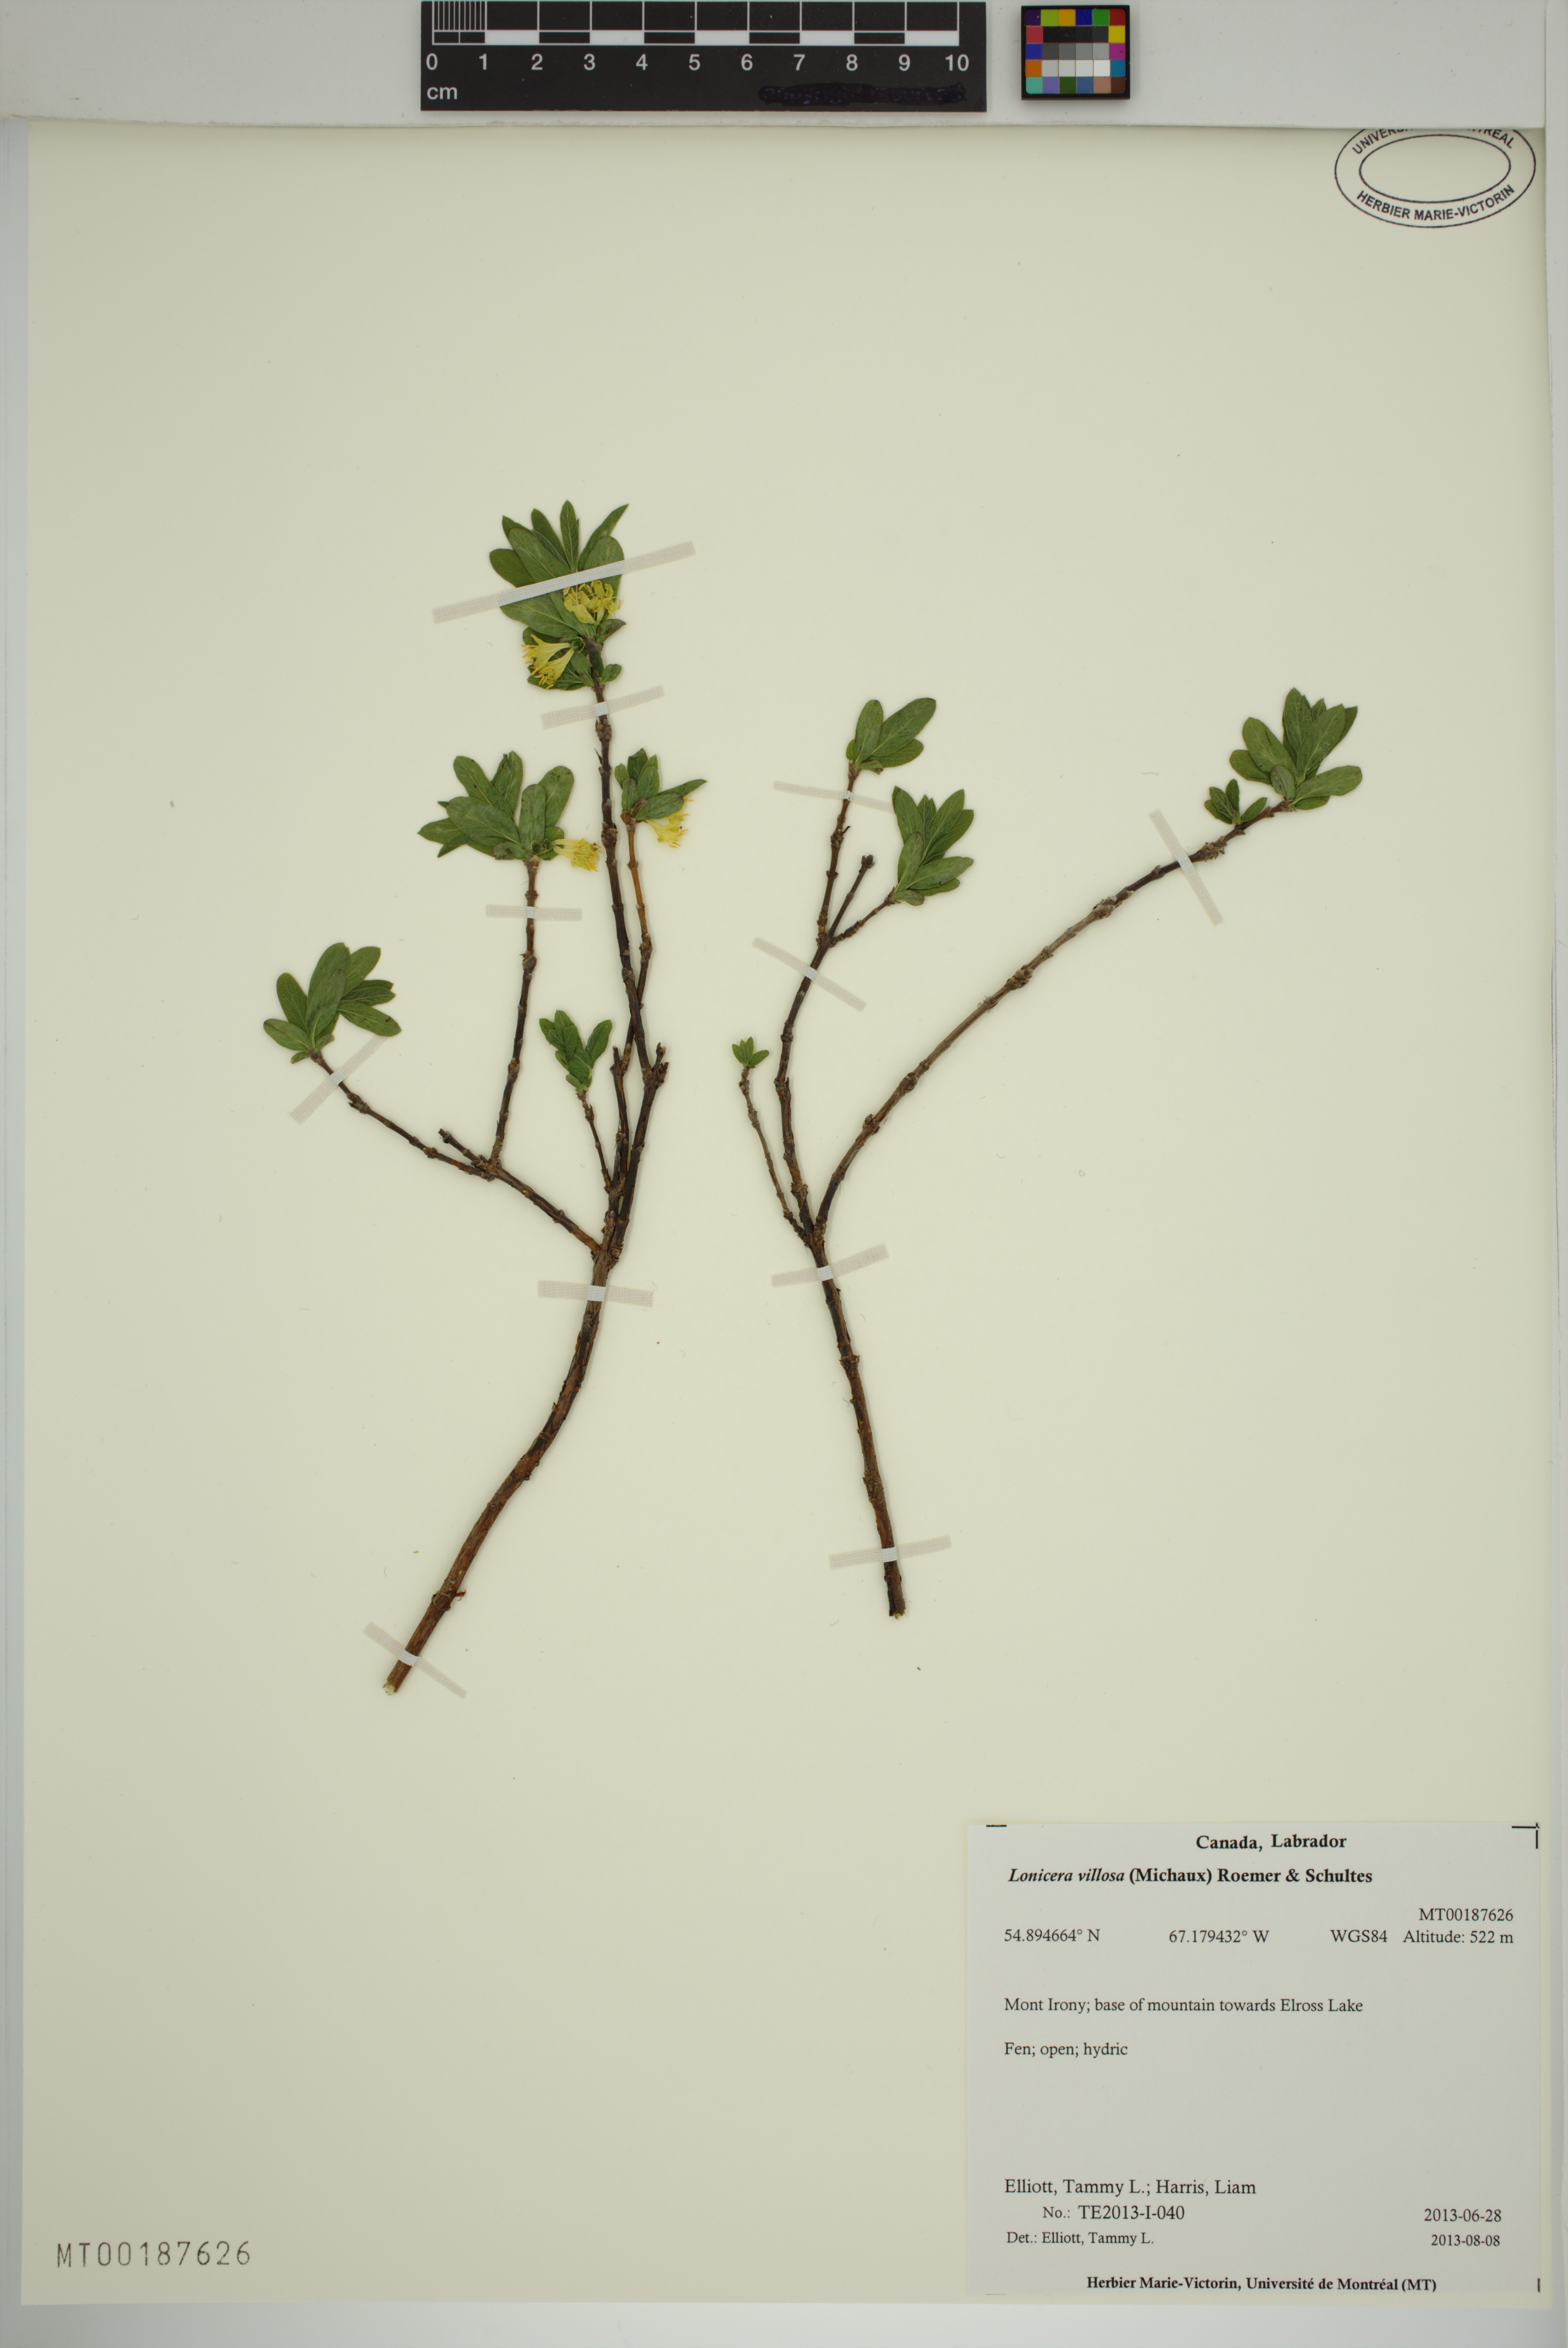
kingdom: Plantae
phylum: Tracheophyta
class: Magnoliopsida
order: Dipsacales
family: Caprifoliaceae
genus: Lonicera
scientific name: Lonicera villosa
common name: Mountain fly-honeysuckle
